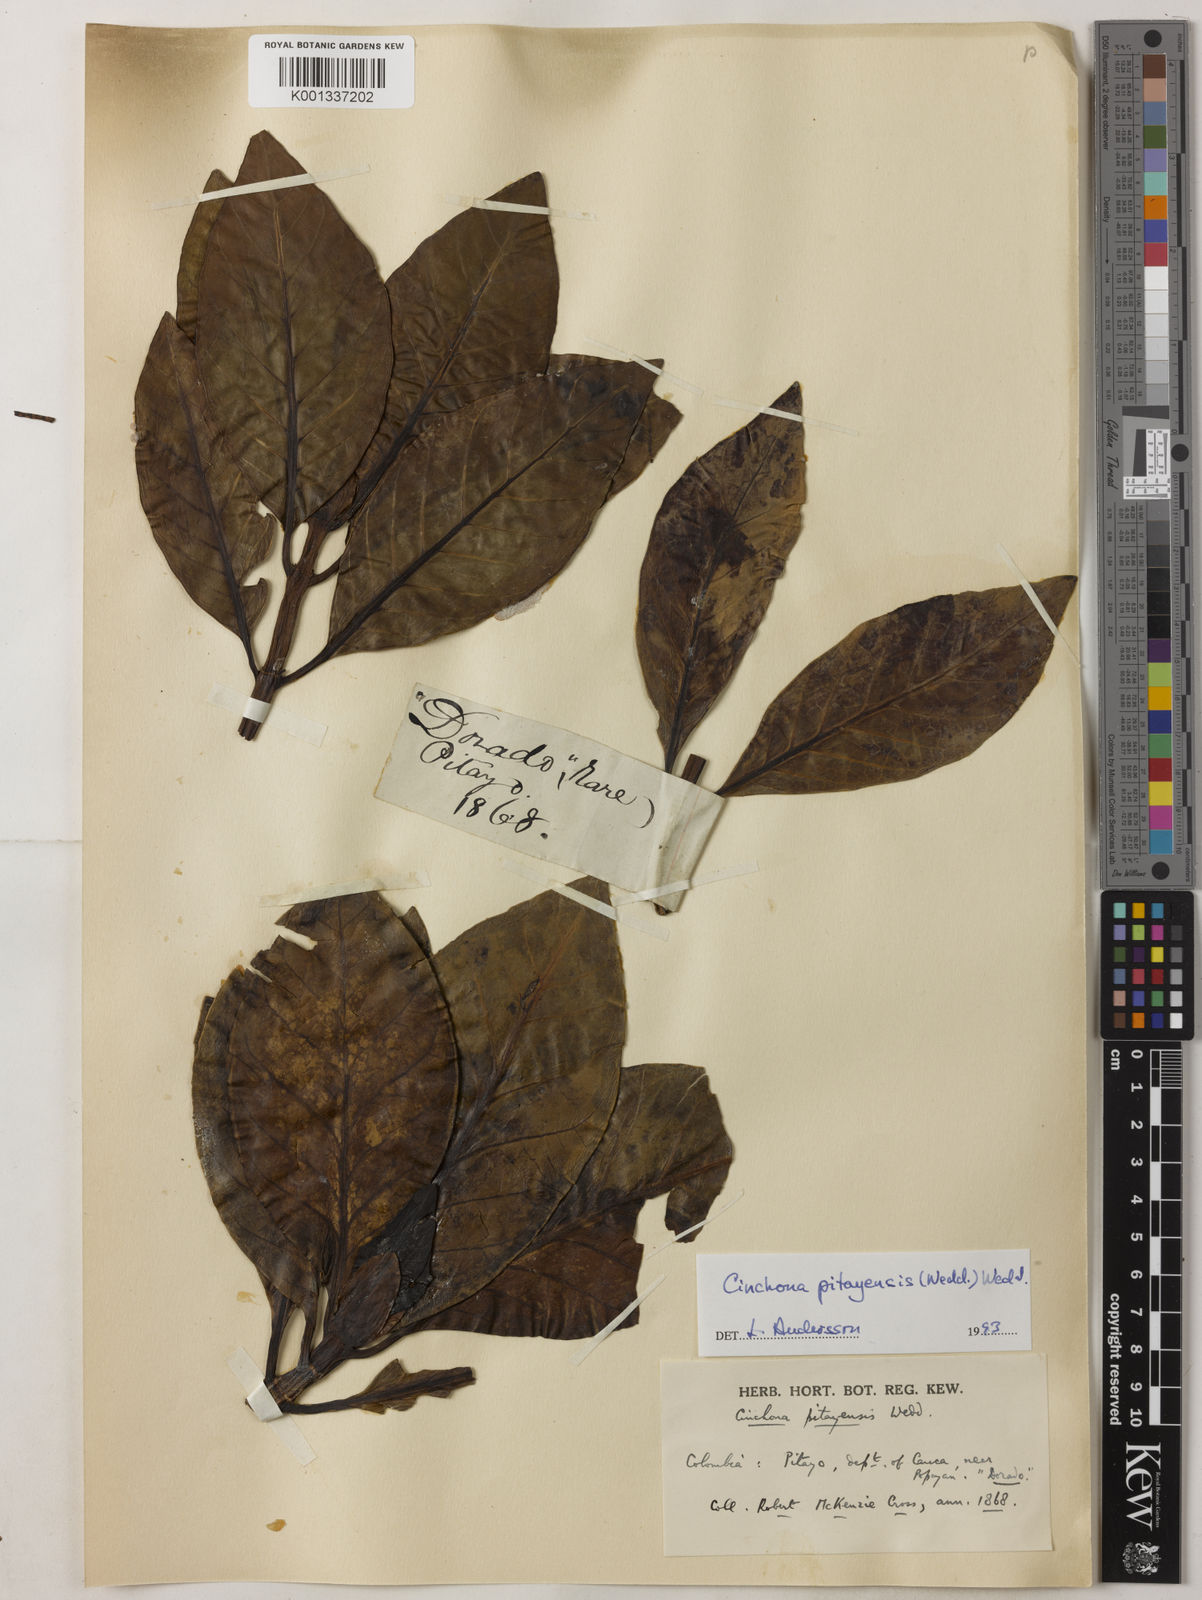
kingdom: Plantae
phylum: Tracheophyta
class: Magnoliopsida
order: Gentianales
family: Rubiaceae
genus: Cinchona
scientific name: Cinchona pitayensis
